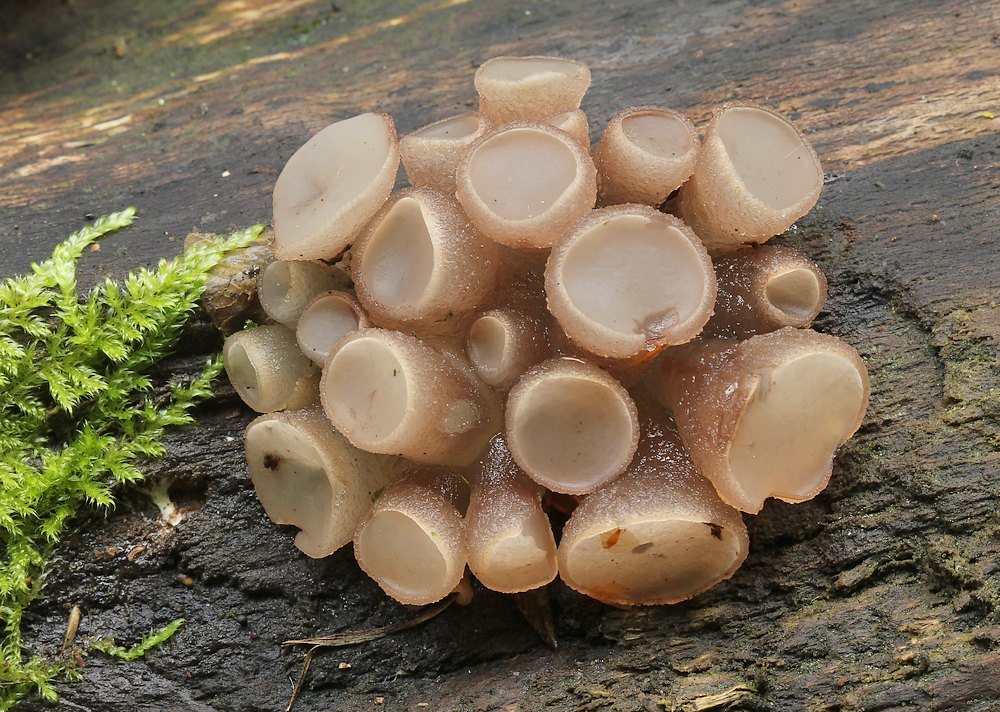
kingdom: Fungi
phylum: Ascomycota
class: Leotiomycetes
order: Helotiales
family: Gelatinodiscaceae
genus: Neobulgaria
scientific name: Neobulgaria pura
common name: bleg bævreskive
